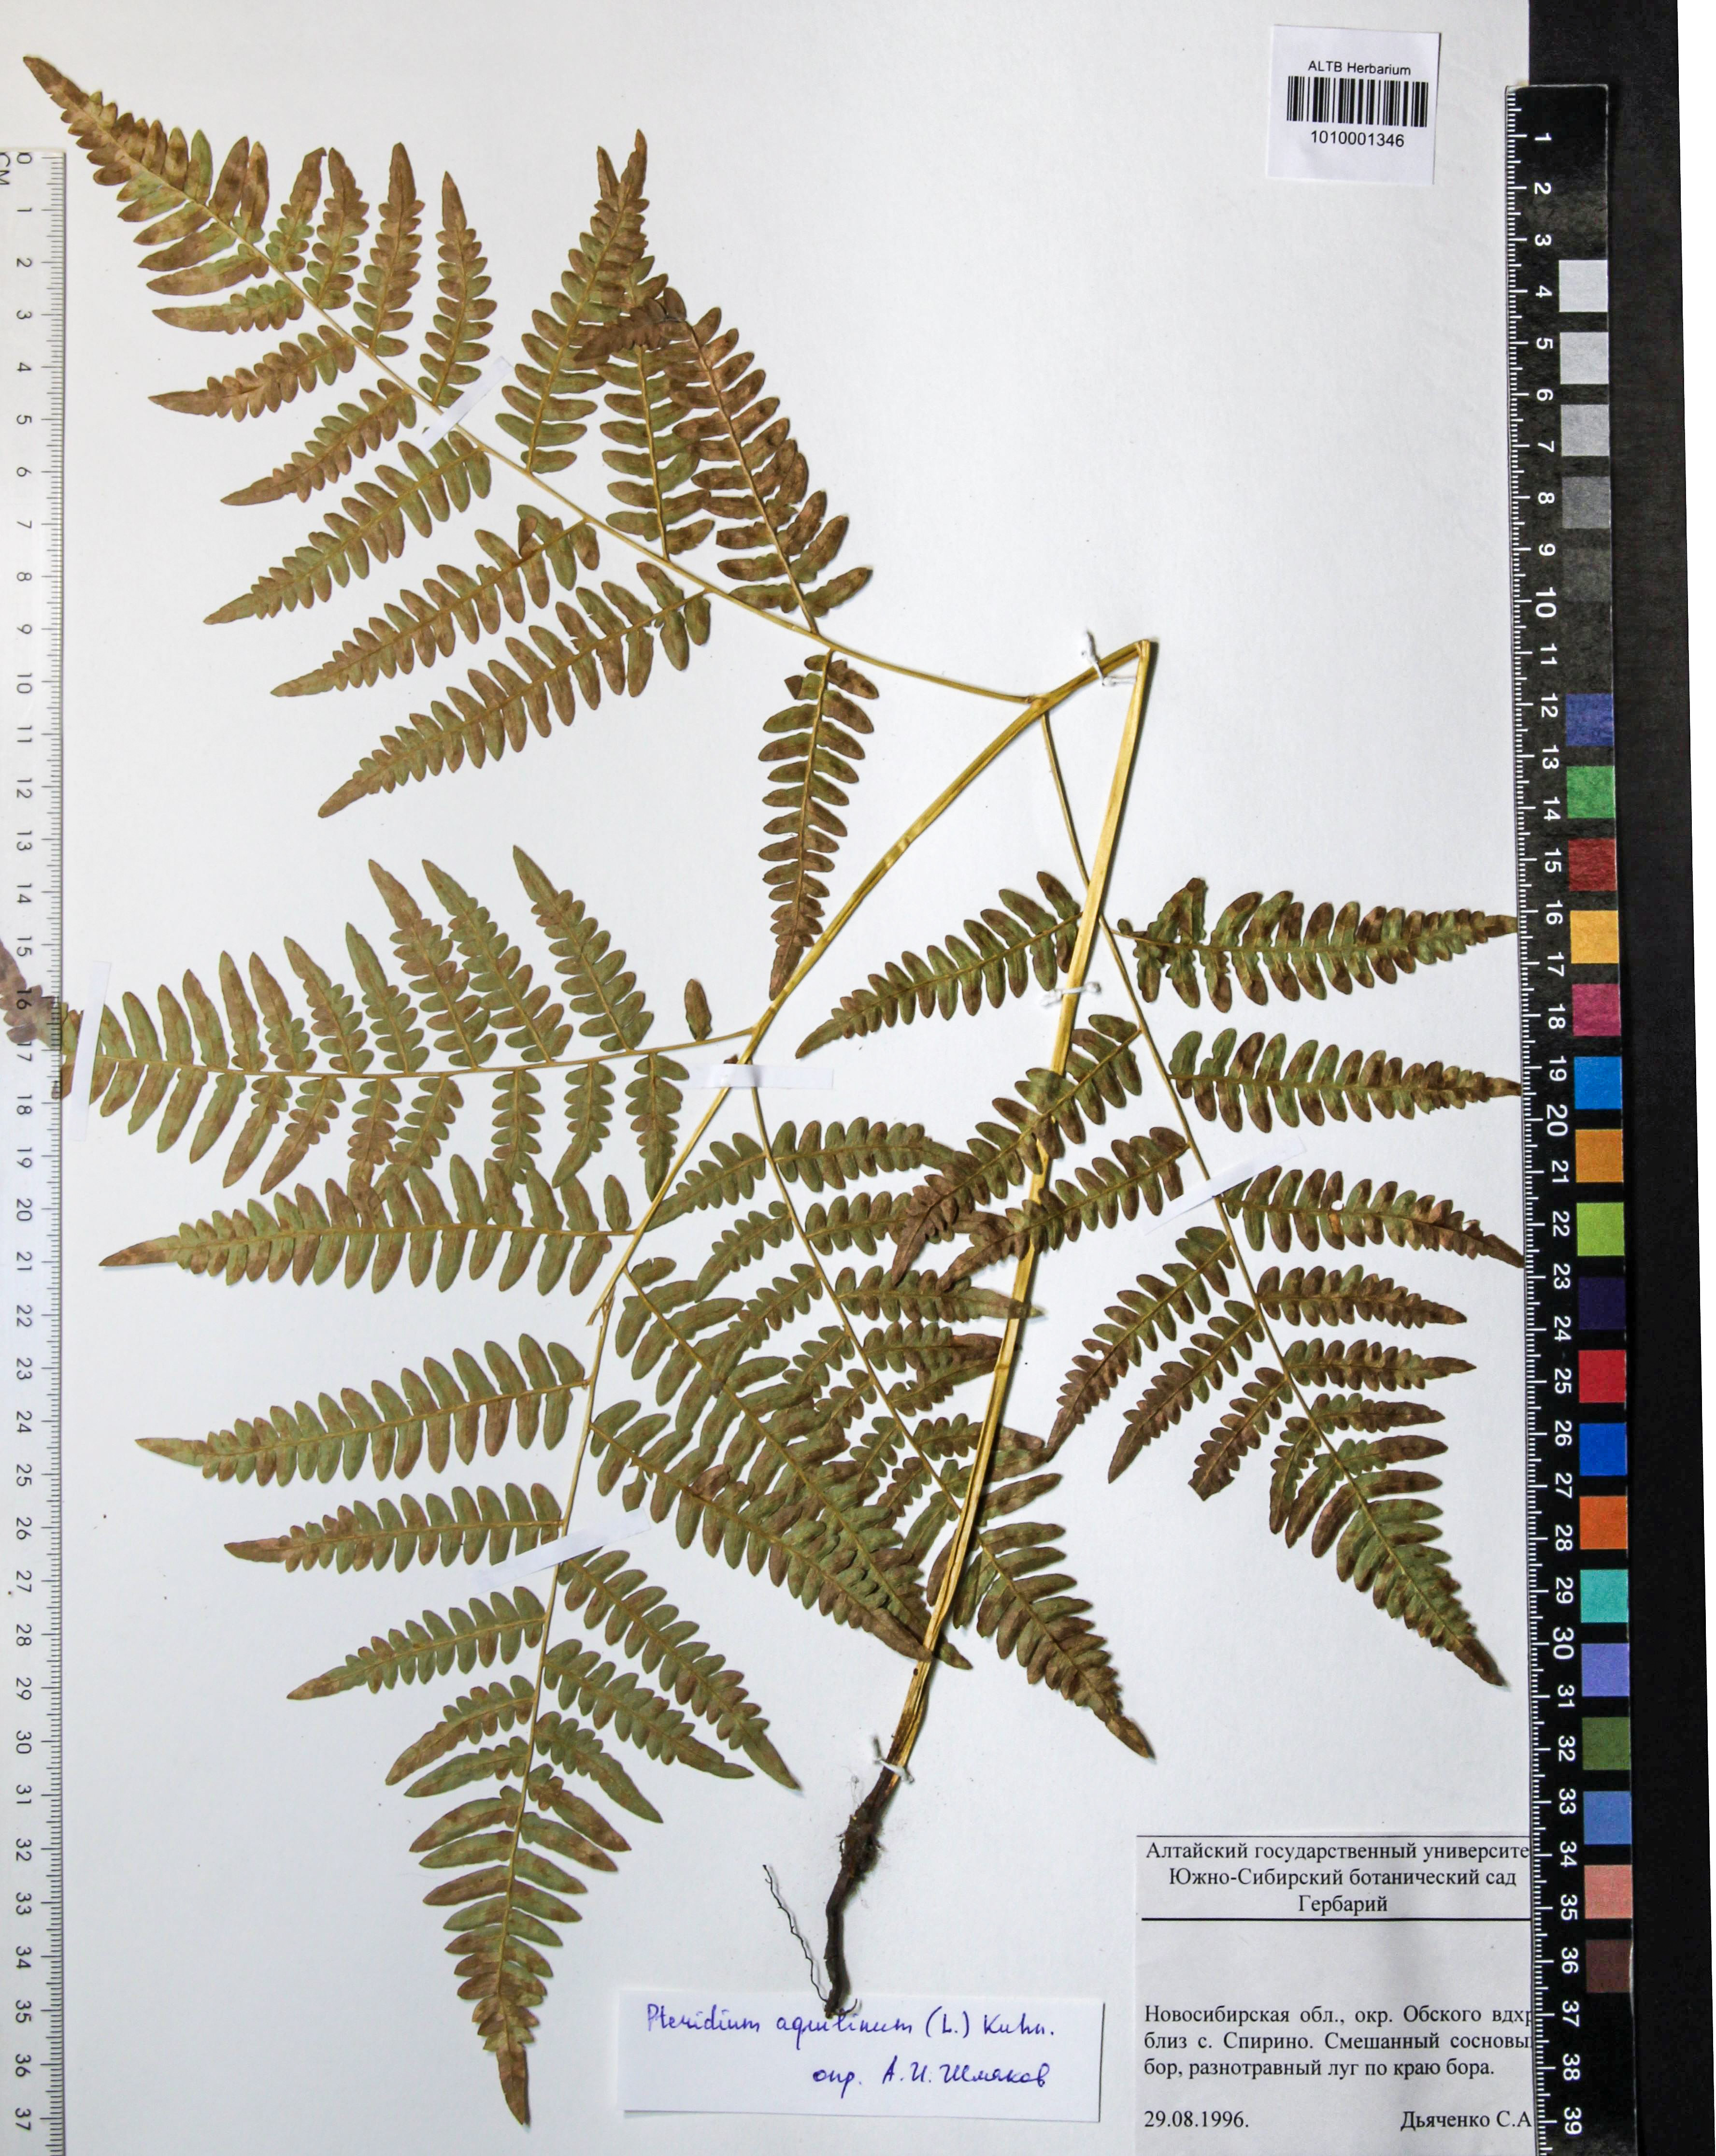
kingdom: Plantae
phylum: Tracheophyta
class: Polypodiopsida
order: Polypodiales
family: Dennstaedtiaceae
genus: Pteridium
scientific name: Pteridium aquilinum
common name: Bracken
